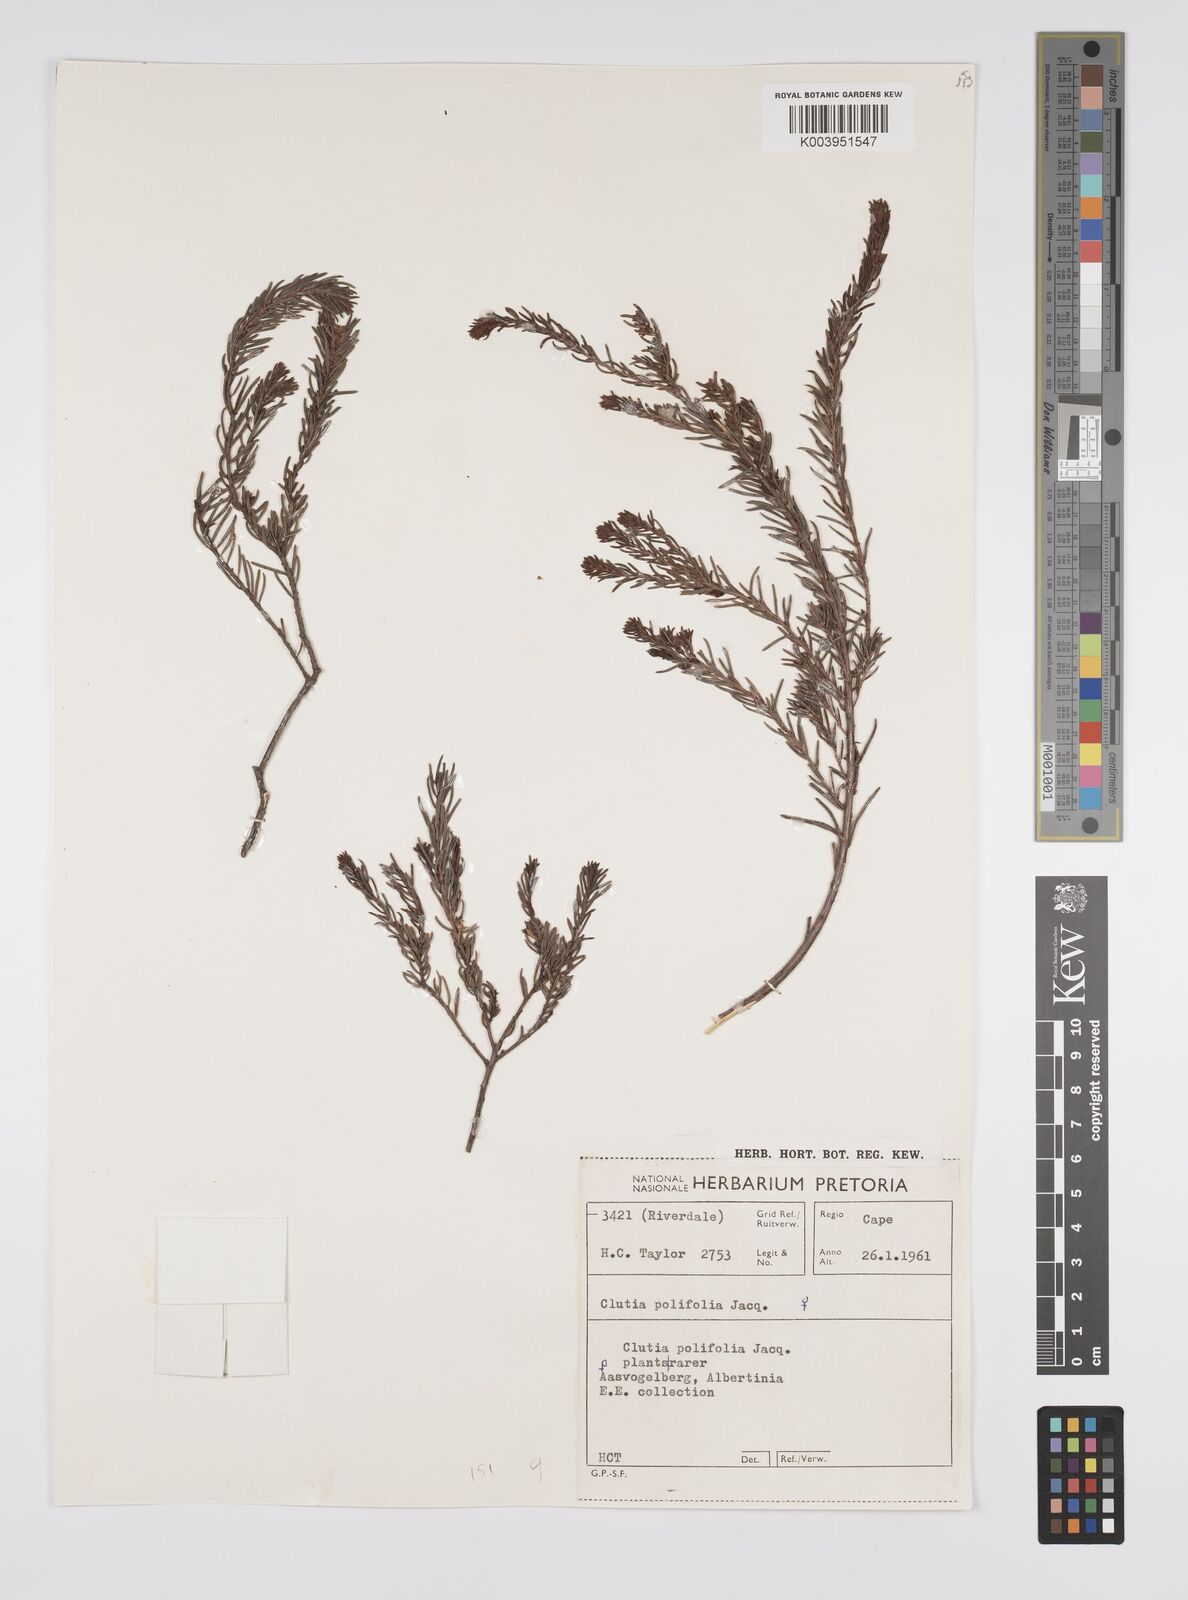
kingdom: Plantae
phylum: Tracheophyta
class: Magnoliopsida
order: Malpighiales
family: Peraceae
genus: Clutia
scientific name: Clutia
